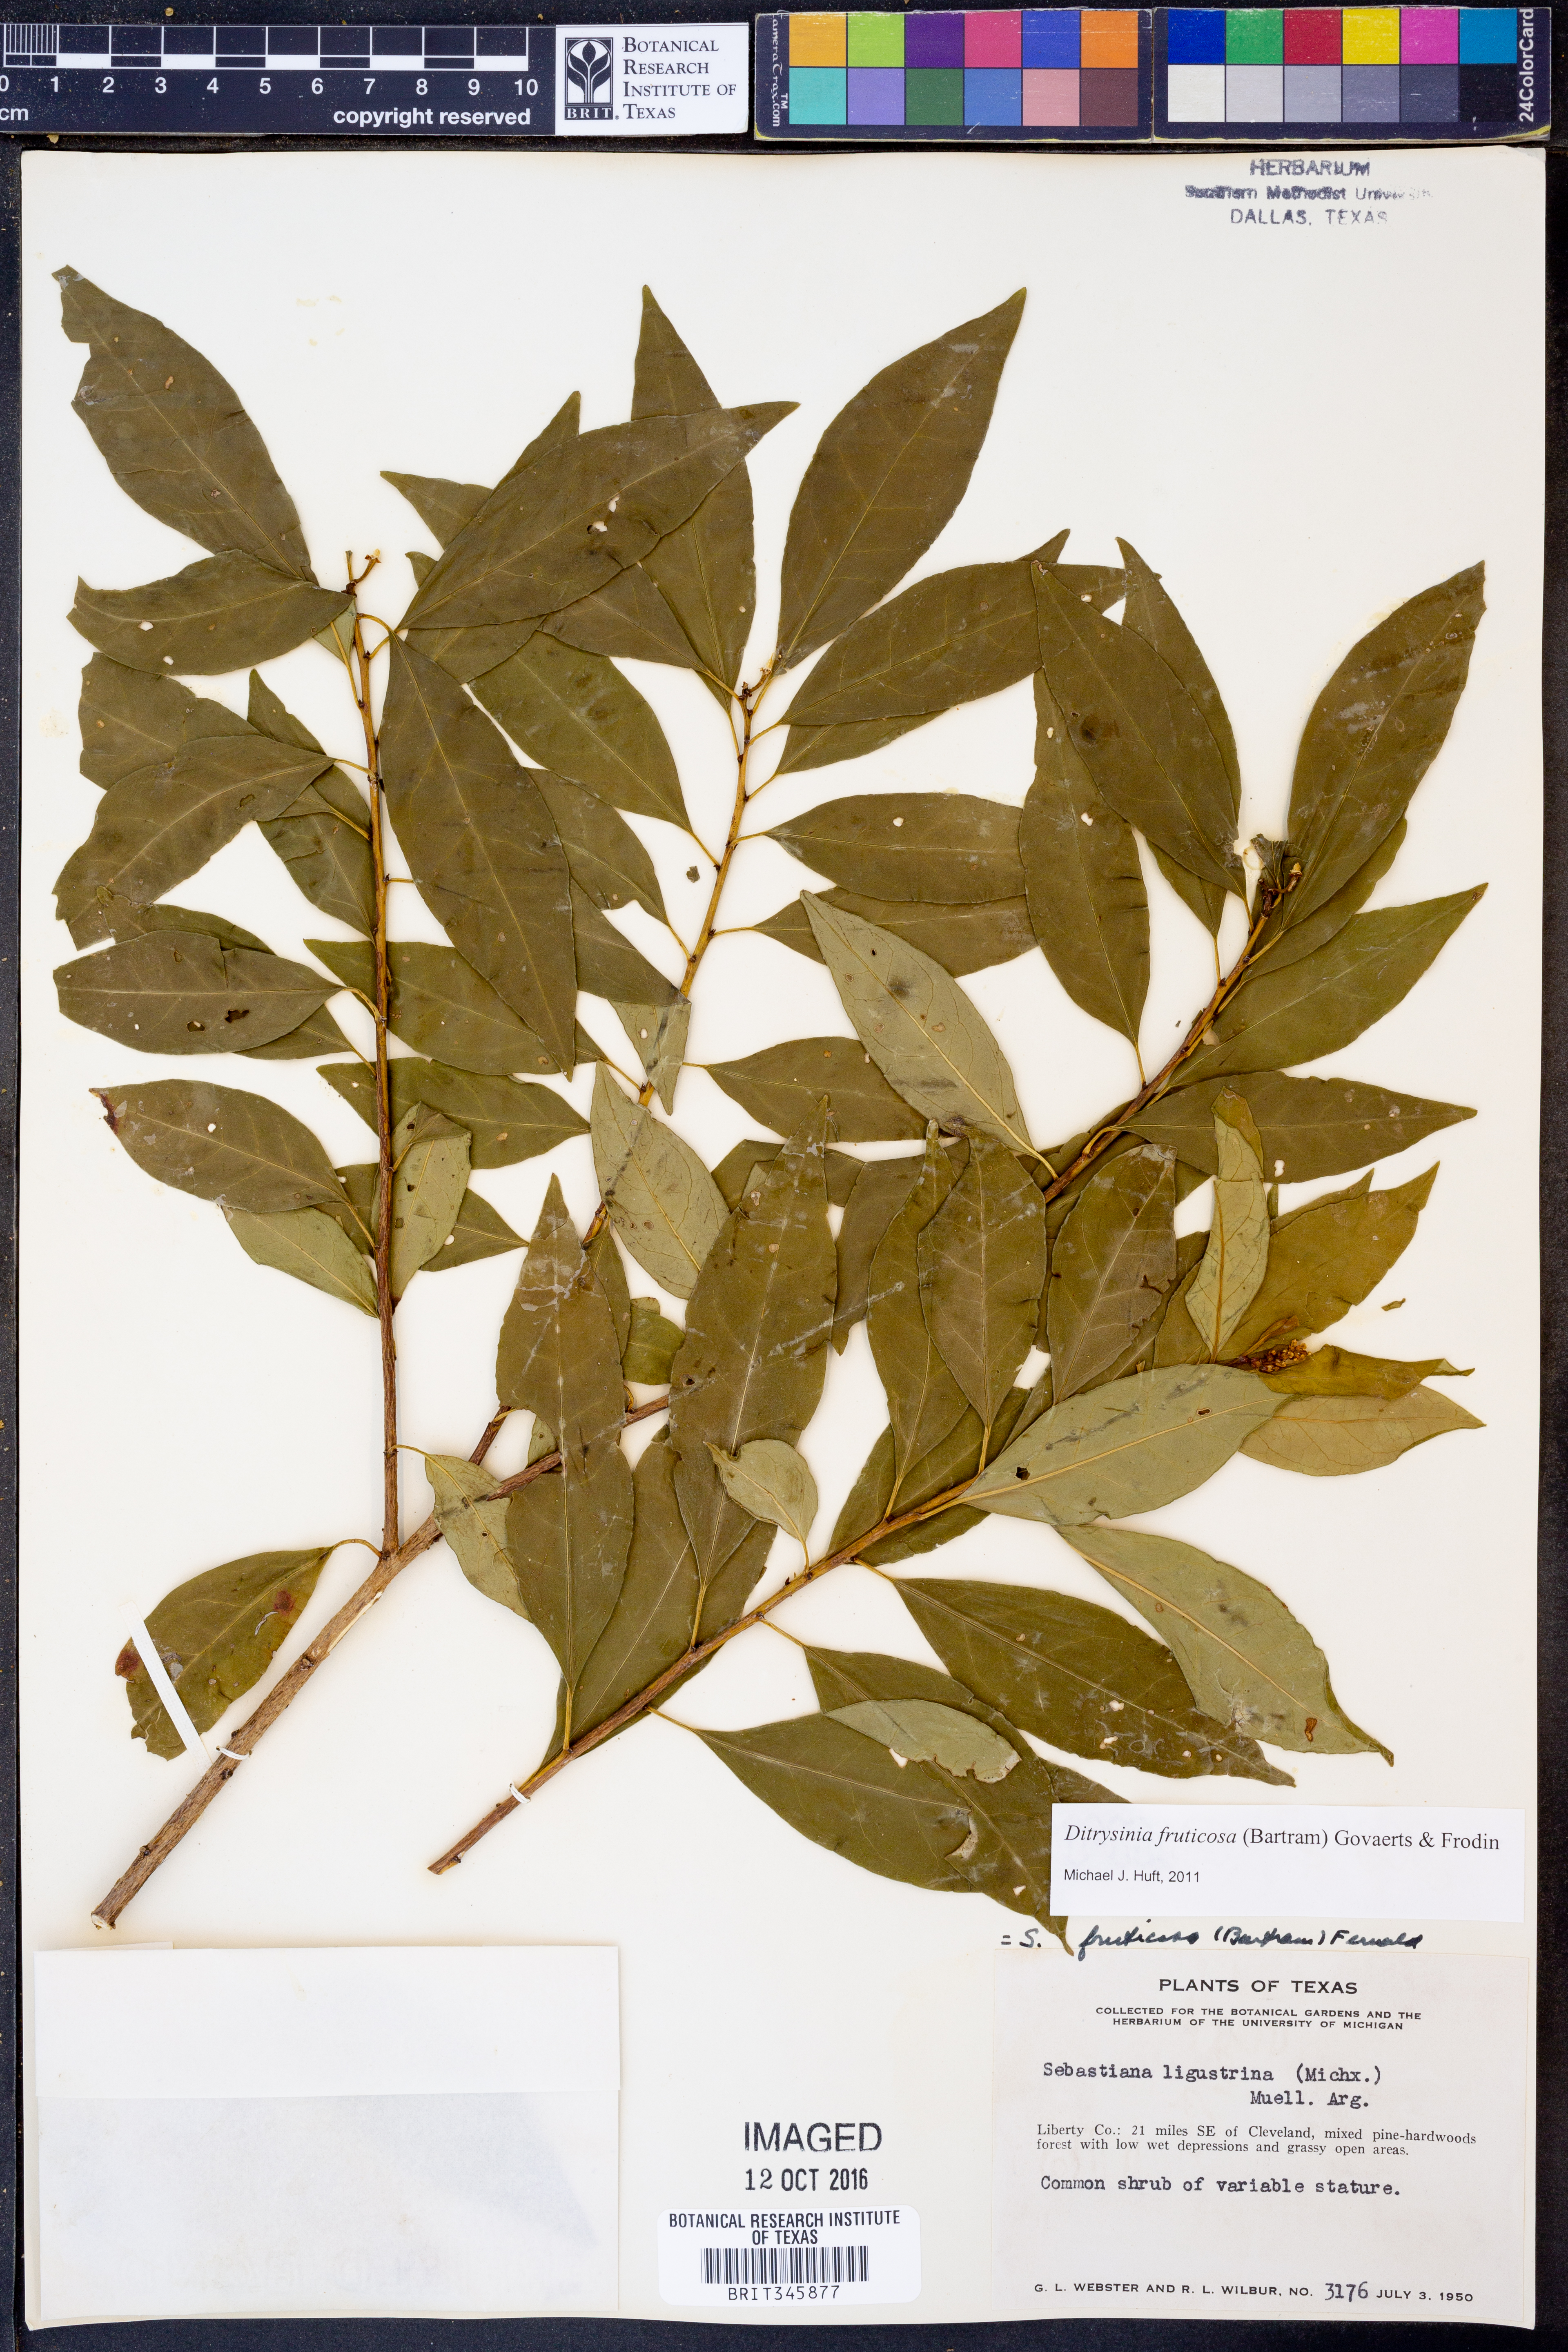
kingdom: Plantae
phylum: Tracheophyta
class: Magnoliopsida
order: Malpighiales
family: Euphorbiaceae
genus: Ditrysinia
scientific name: Ditrysinia fruticosa
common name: Gulf sebastian-bush
